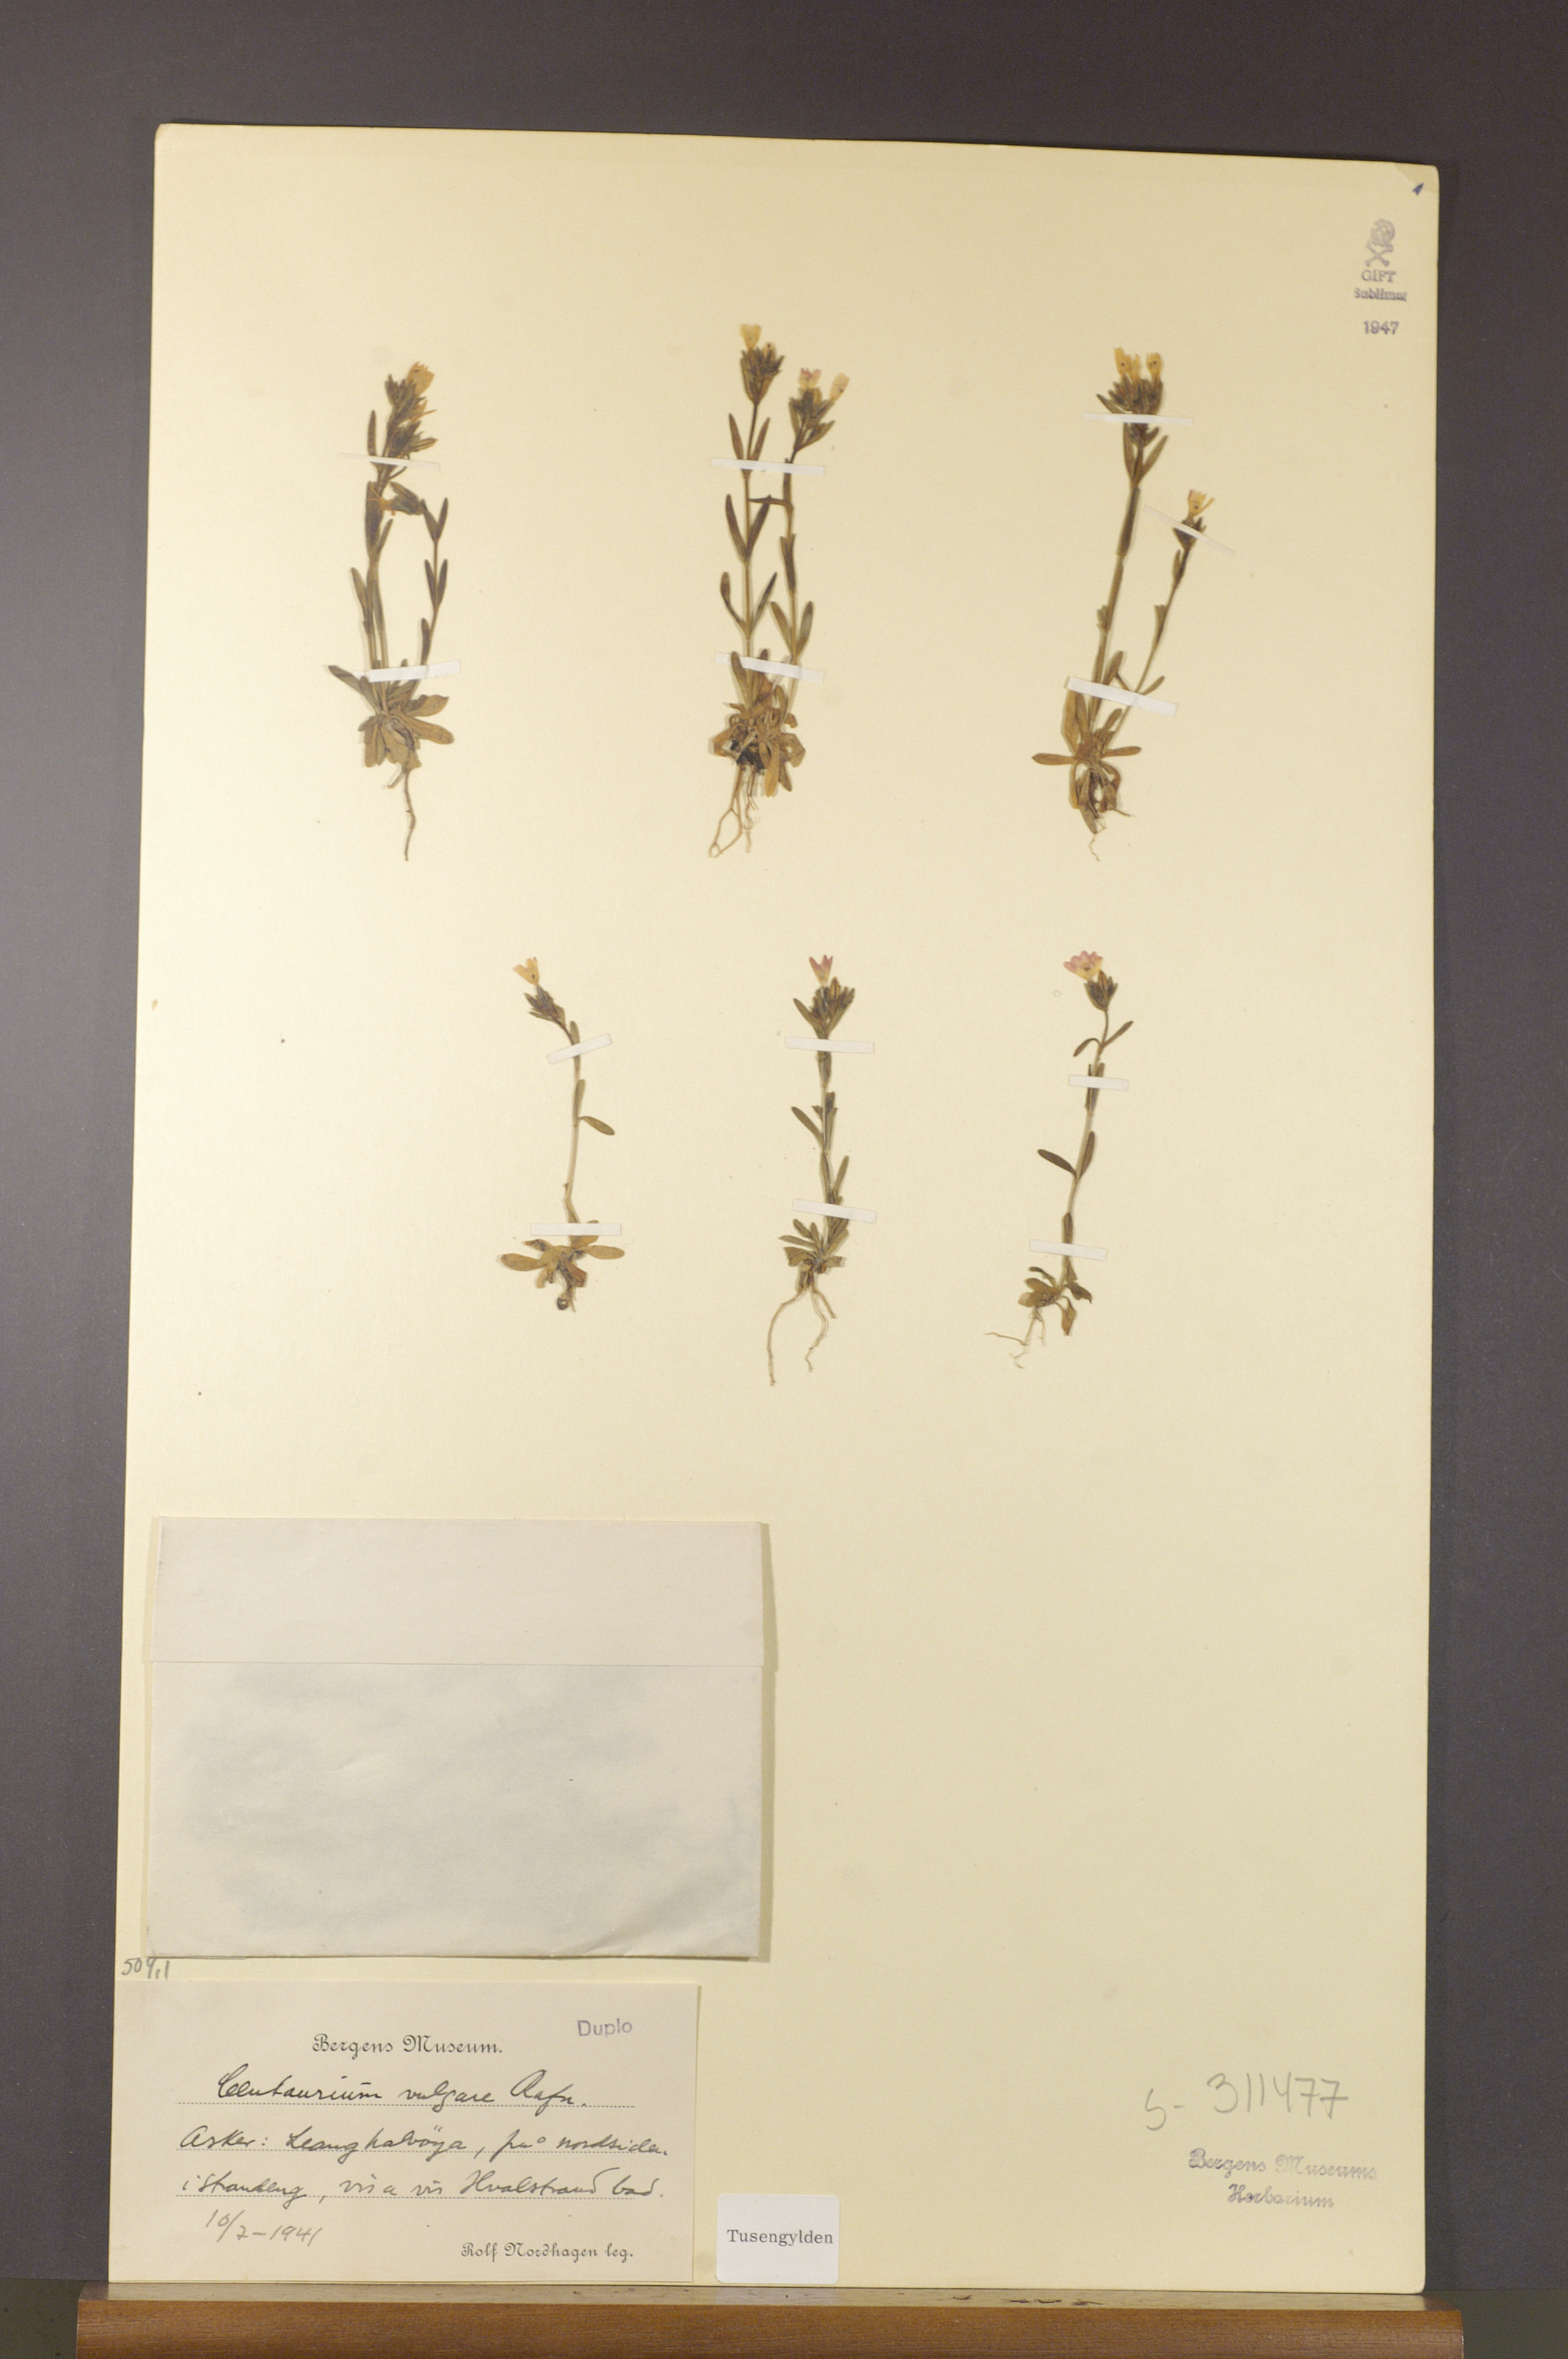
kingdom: Plantae
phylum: Tracheophyta
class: Magnoliopsida
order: Gentianales
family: Gentianaceae
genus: Centaurium
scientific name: Centaurium littorale
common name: Seaside centaury
